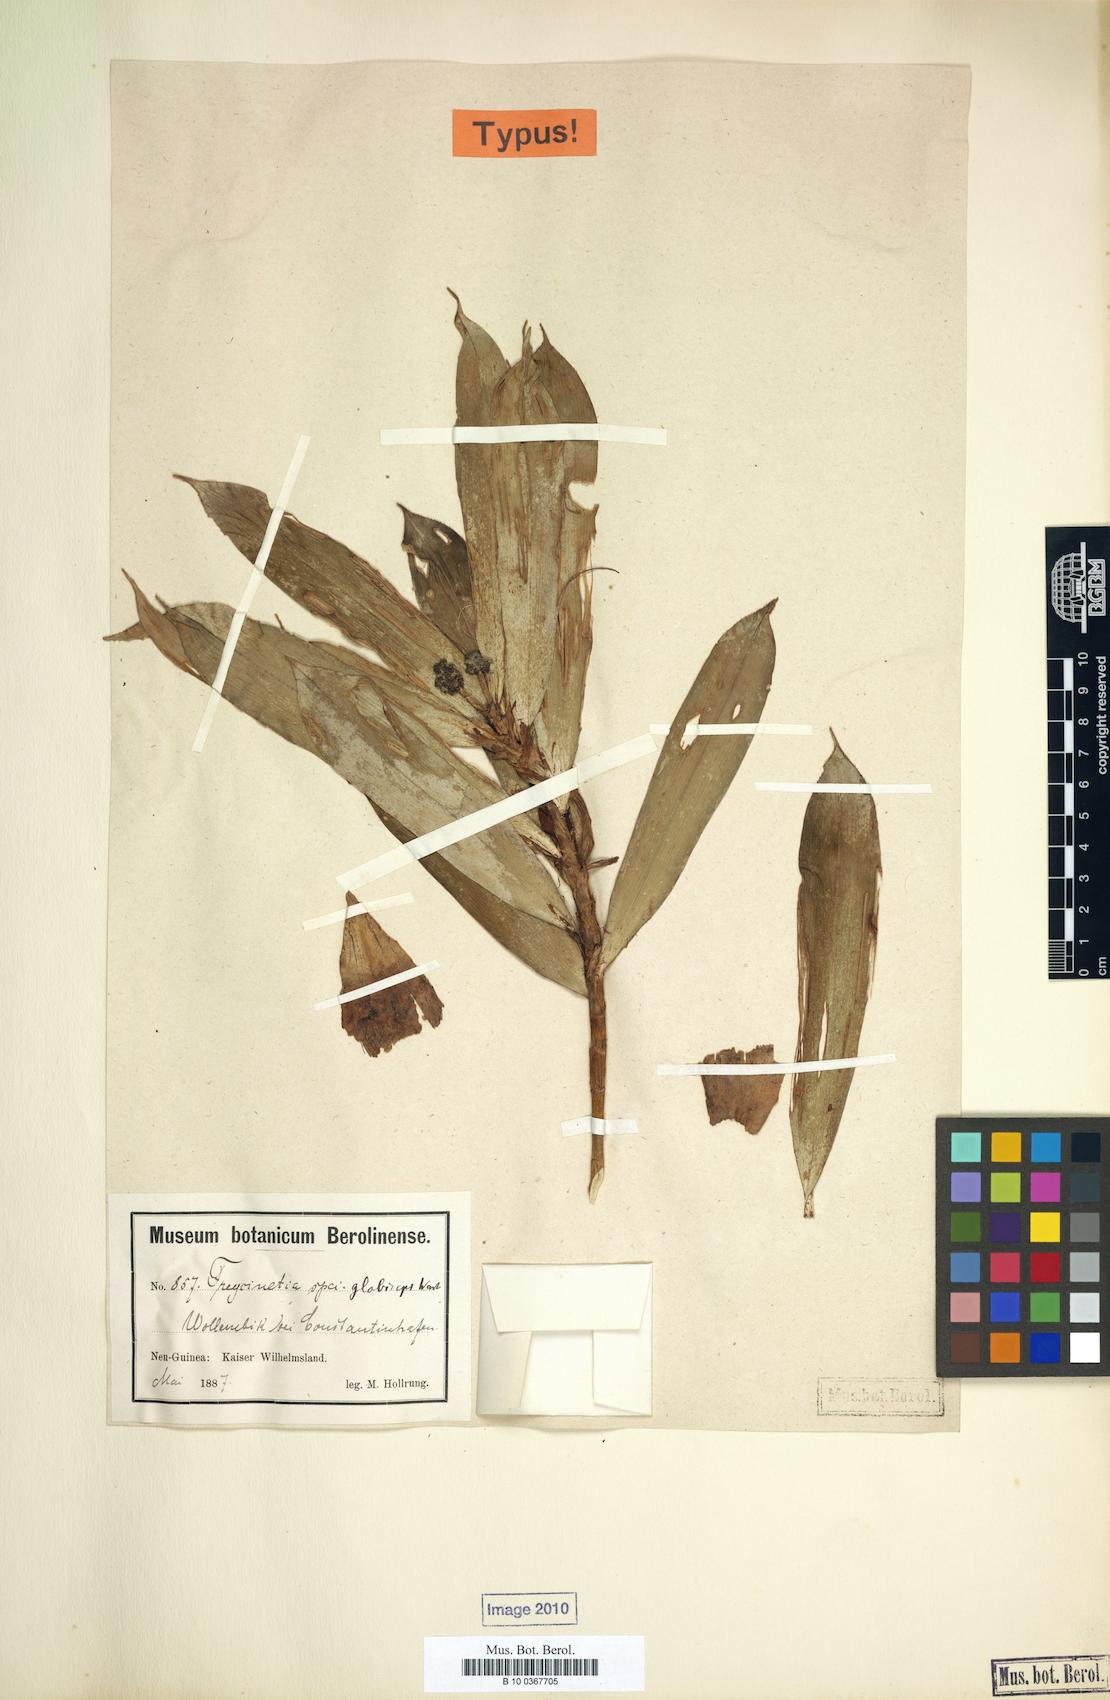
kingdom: Plantae
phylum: Tracheophyta
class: Liliopsida
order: Pandanales
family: Pandanaceae
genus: Freycinetia
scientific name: Freycinetia beccarii
